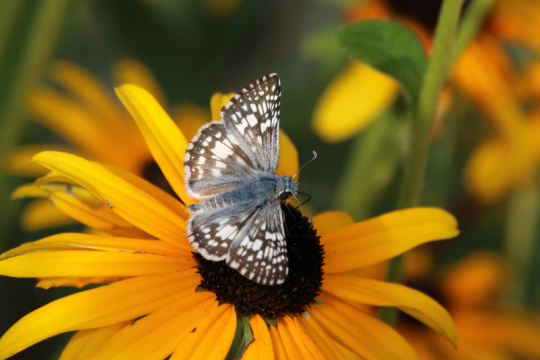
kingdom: Animalia
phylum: Arthropoda
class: Insecta
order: Lepidoptera
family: Hesperiidae
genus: Pyrgus
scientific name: Pyrgus communis
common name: Common Checkered-Skipper
